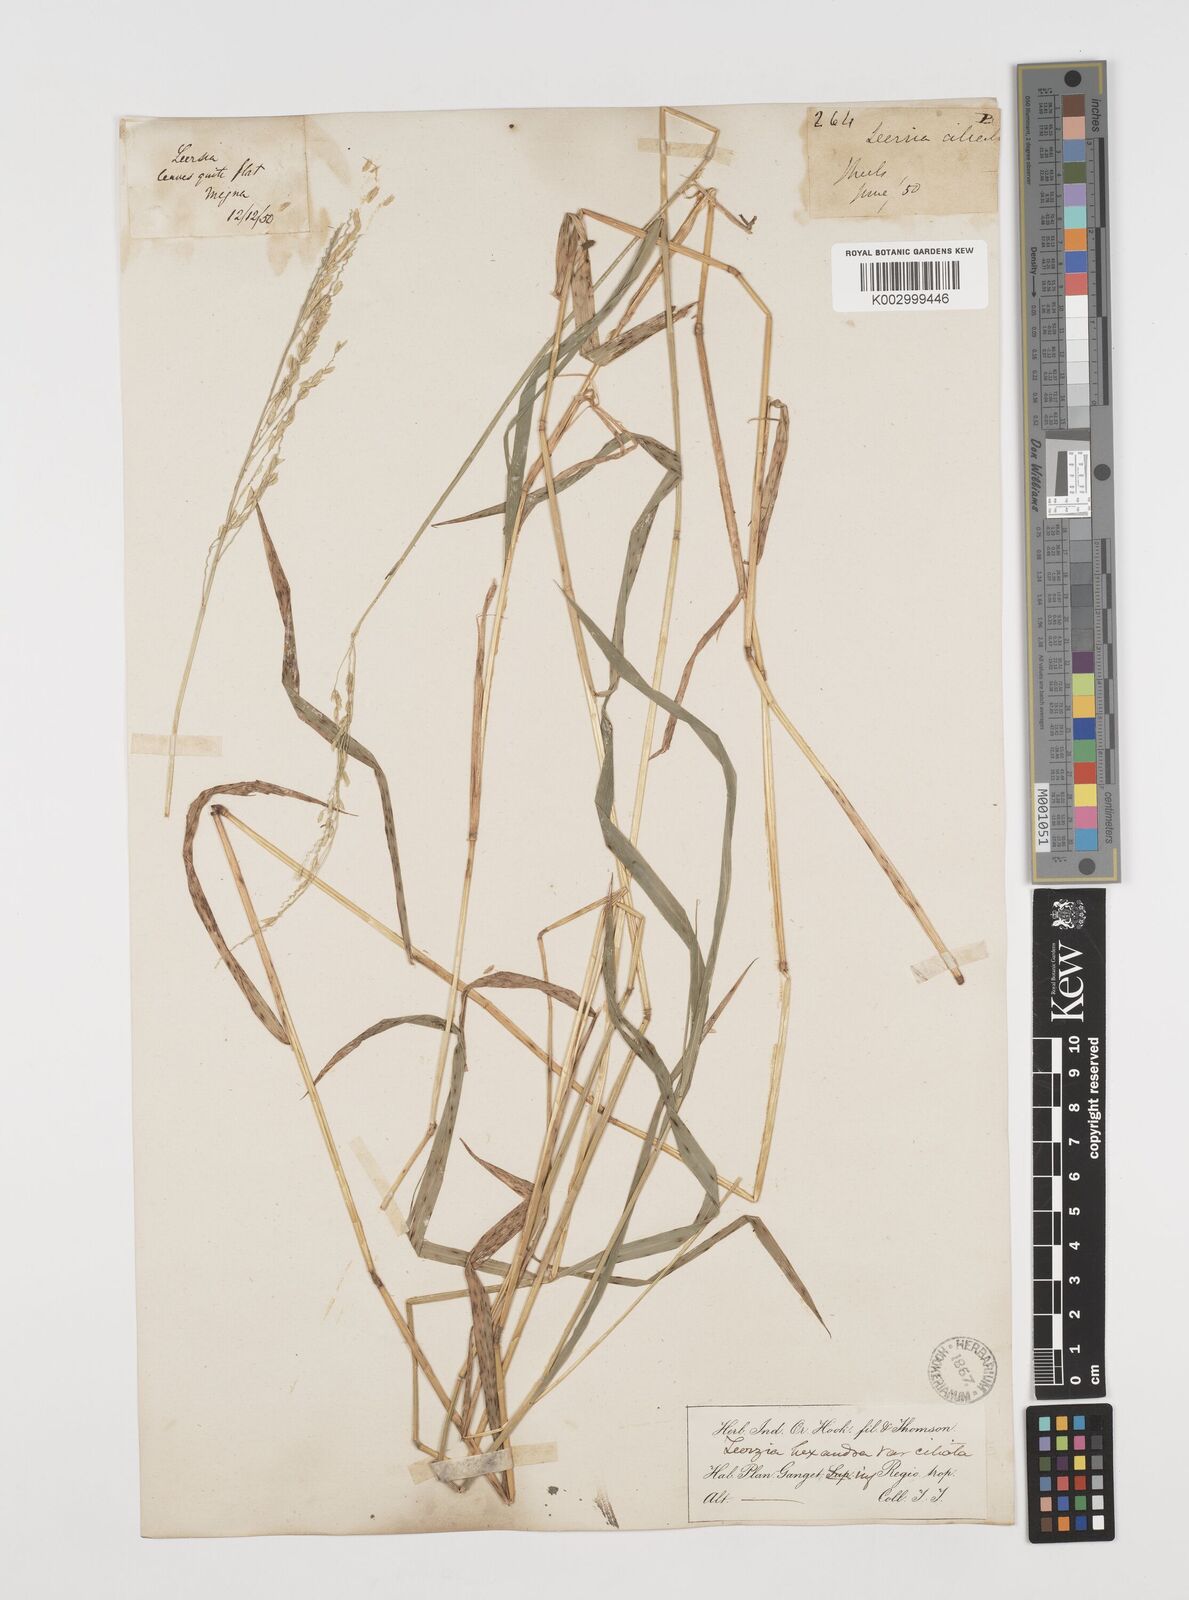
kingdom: Plantae
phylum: Tracheophyta
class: Liliopsida
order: Poales
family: Poaceae
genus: Leersia
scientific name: Leersia hexandra
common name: Southern cut grass
